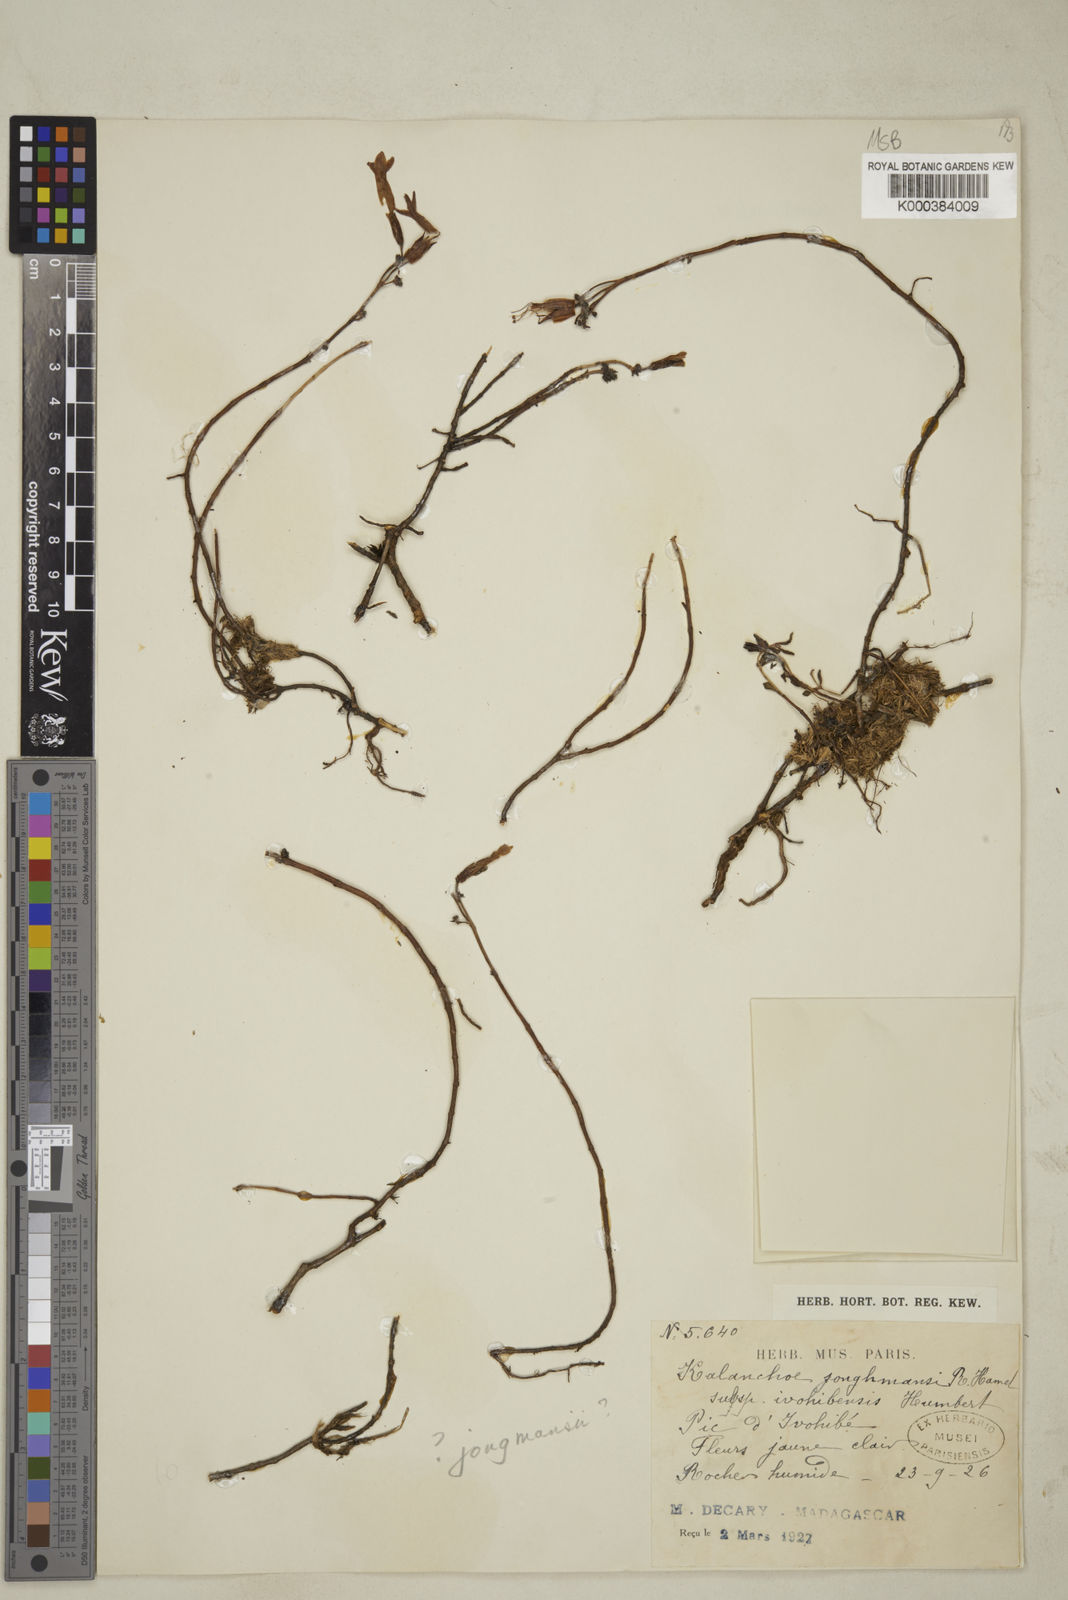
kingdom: Plantae
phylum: Tracheophyta
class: Magnoliopsida
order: Saxifragales
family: Crassulaceae
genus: Kalanchoe
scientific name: Kalanchoe
